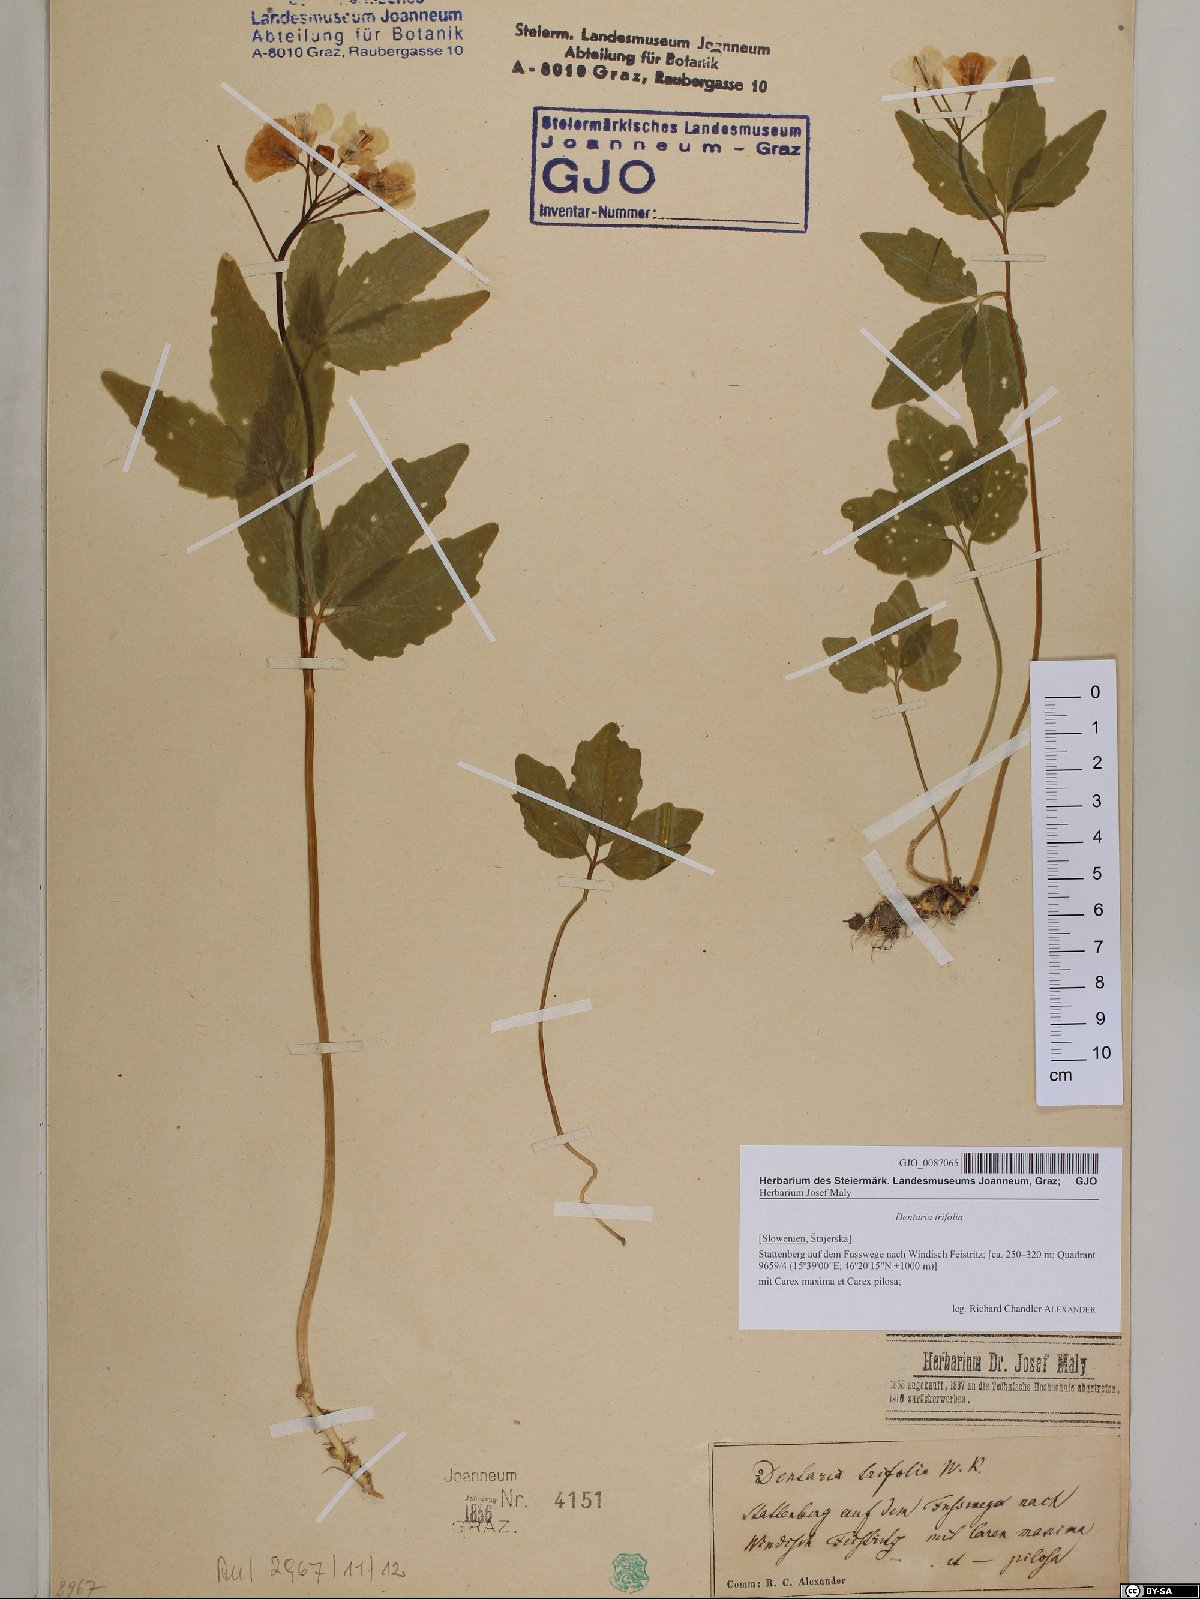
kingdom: Plantae
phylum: Tracheophyta
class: Magnoliopsida
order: Brassicales
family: Brassicaceae
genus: Cardamine
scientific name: Cardamine waldsteinii
